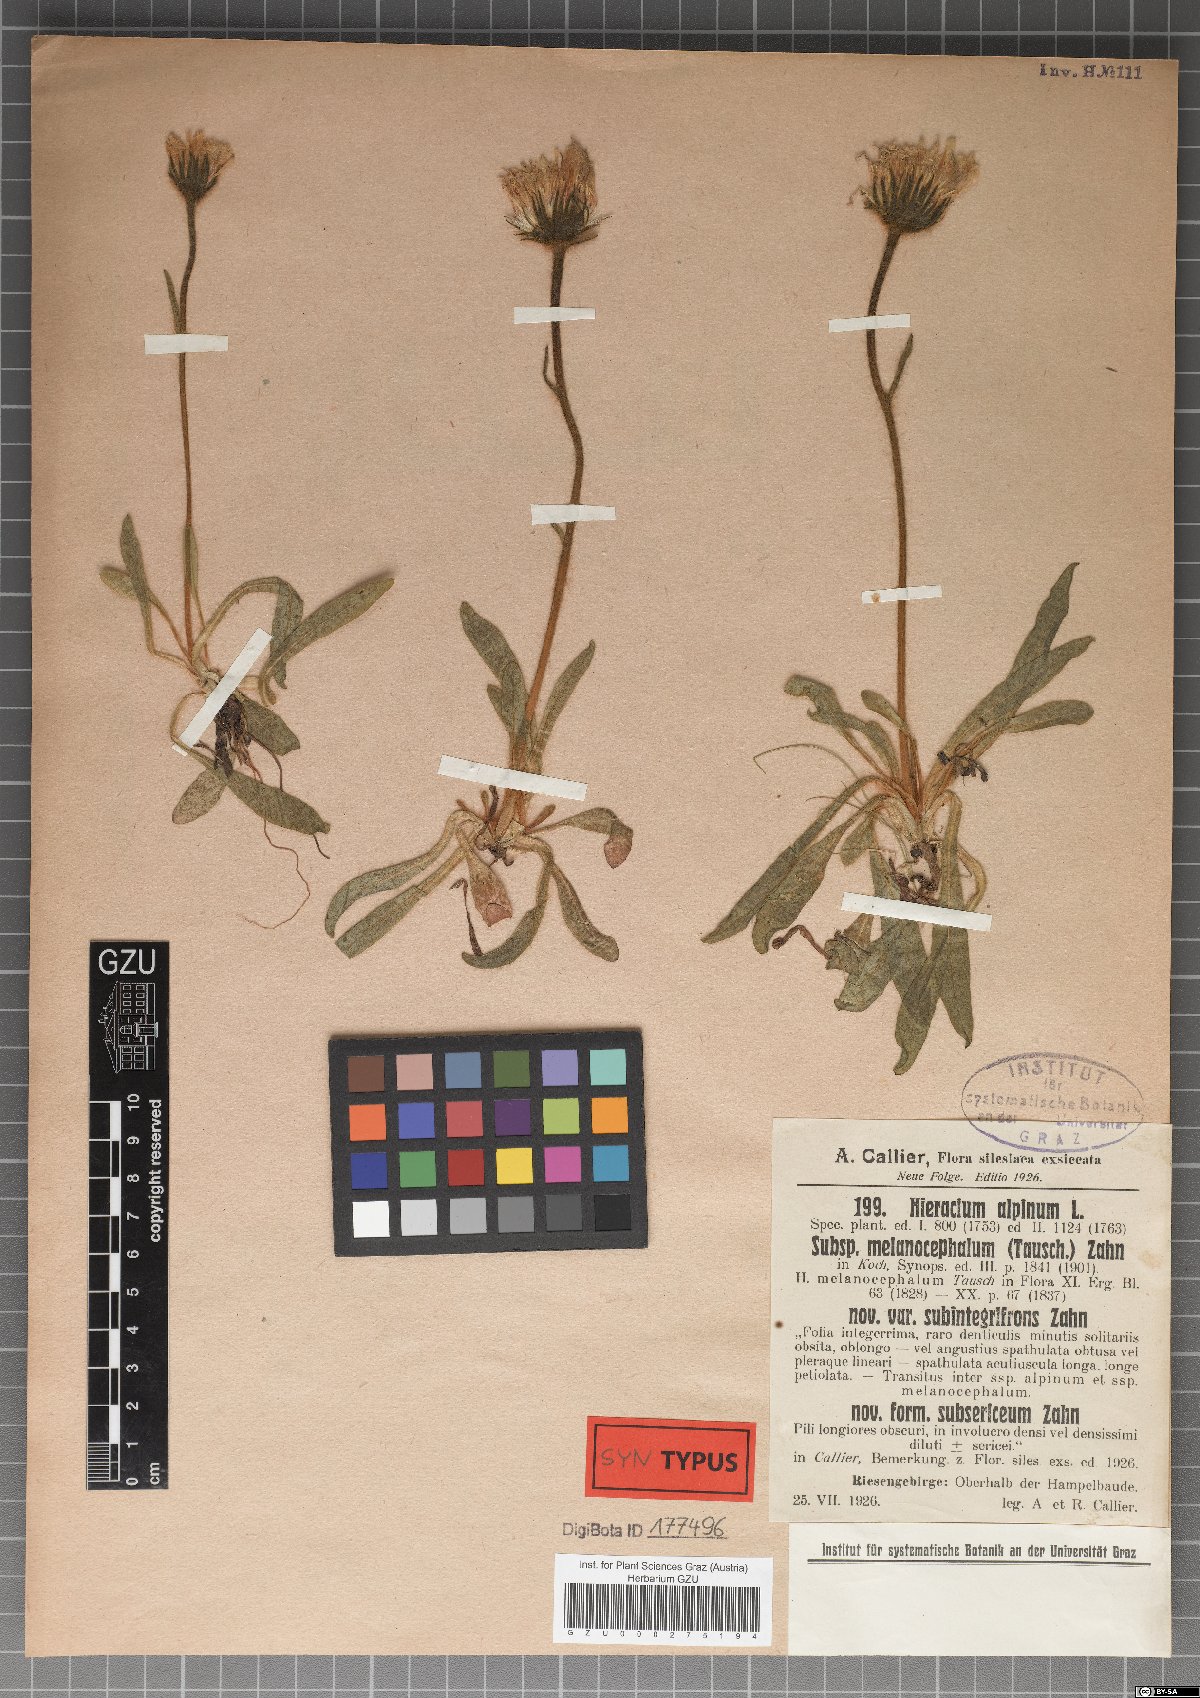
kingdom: Plantae
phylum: Tracheophyta
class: Magnoliopsida
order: Asterales
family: Asteraceae
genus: Hieracium
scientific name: Hieracium alpinum
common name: Alpine hawkweed
